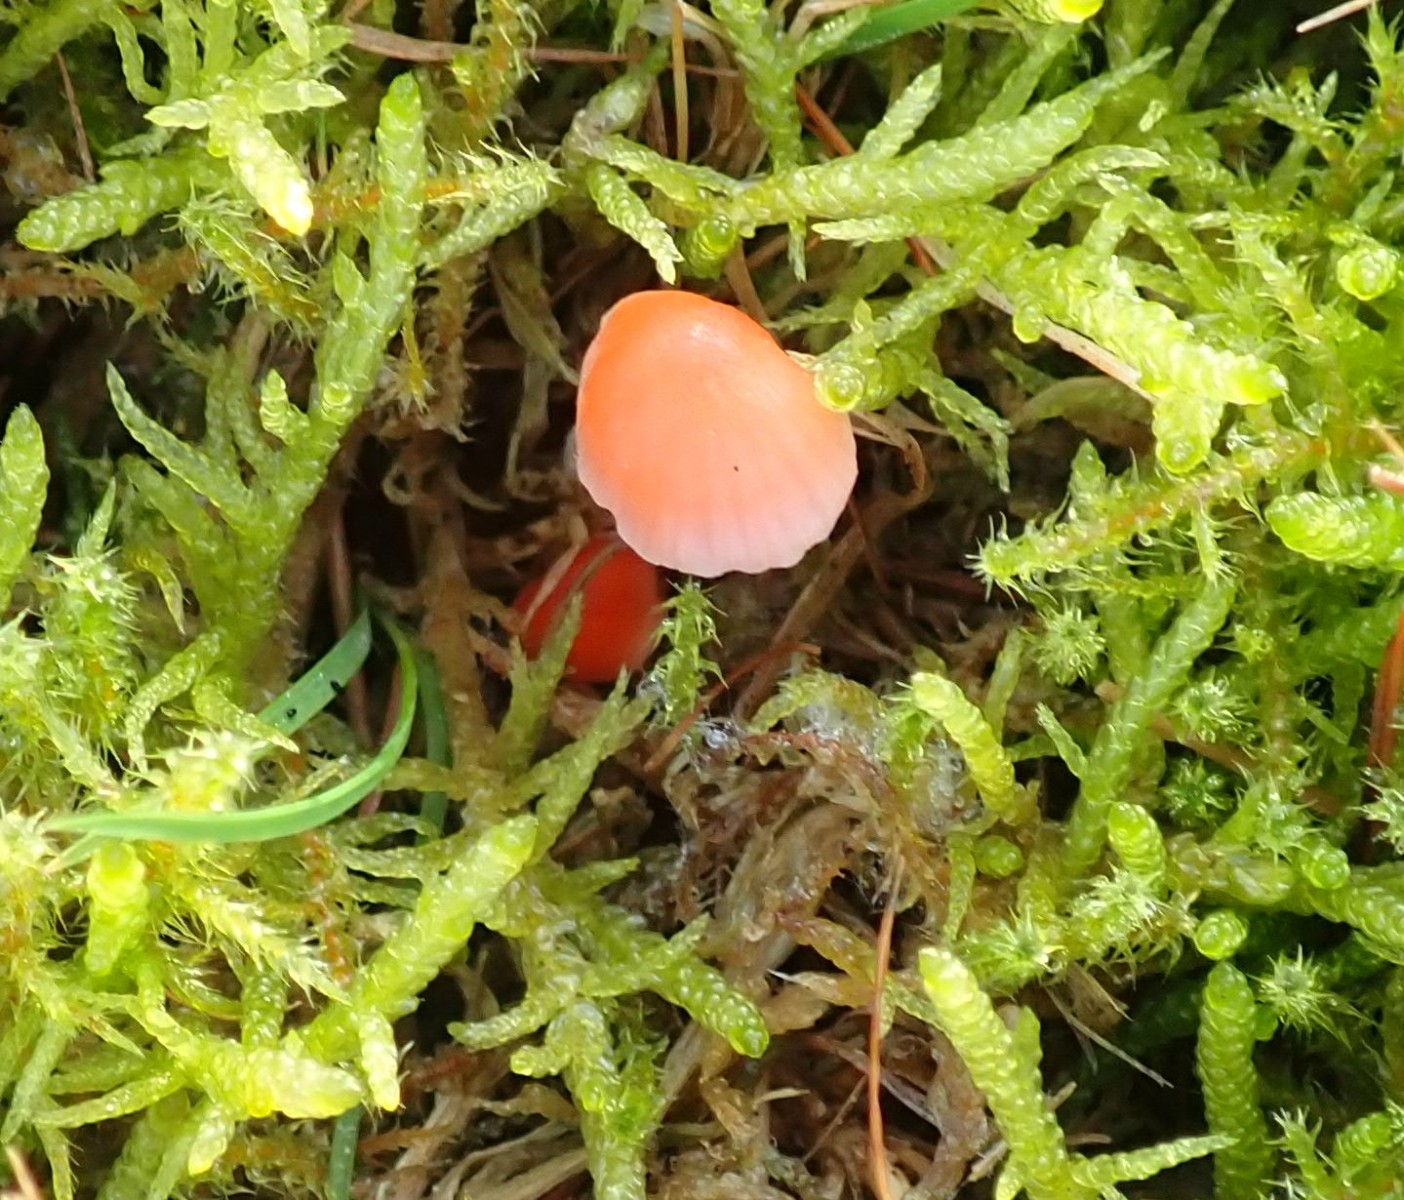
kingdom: Fungi
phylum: Basidiomycota
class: Agaricomycetes
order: Agaricales
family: Mycenaceae
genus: Atheniella
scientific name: Atheniella adonis
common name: rønnerød huesvamp
